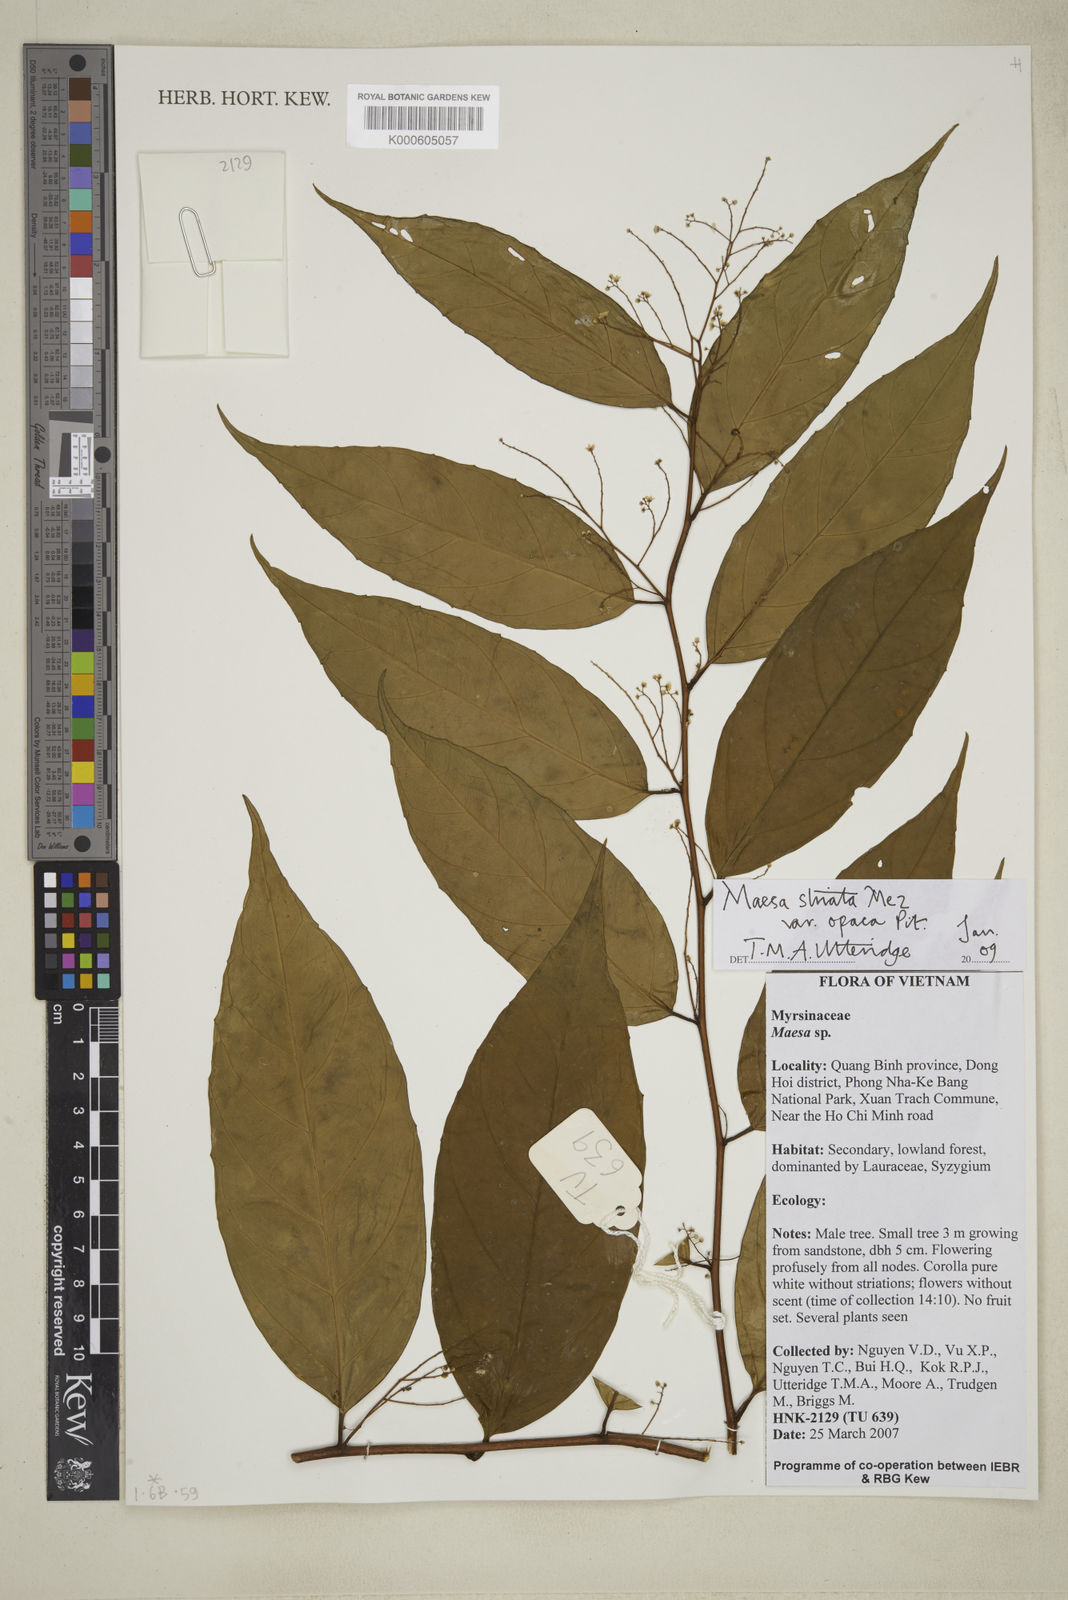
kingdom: Plantae
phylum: Tracheophyta
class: Magnoliopsida
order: Ericales
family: Primulaceae
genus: Maesa
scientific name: Maesa striata
